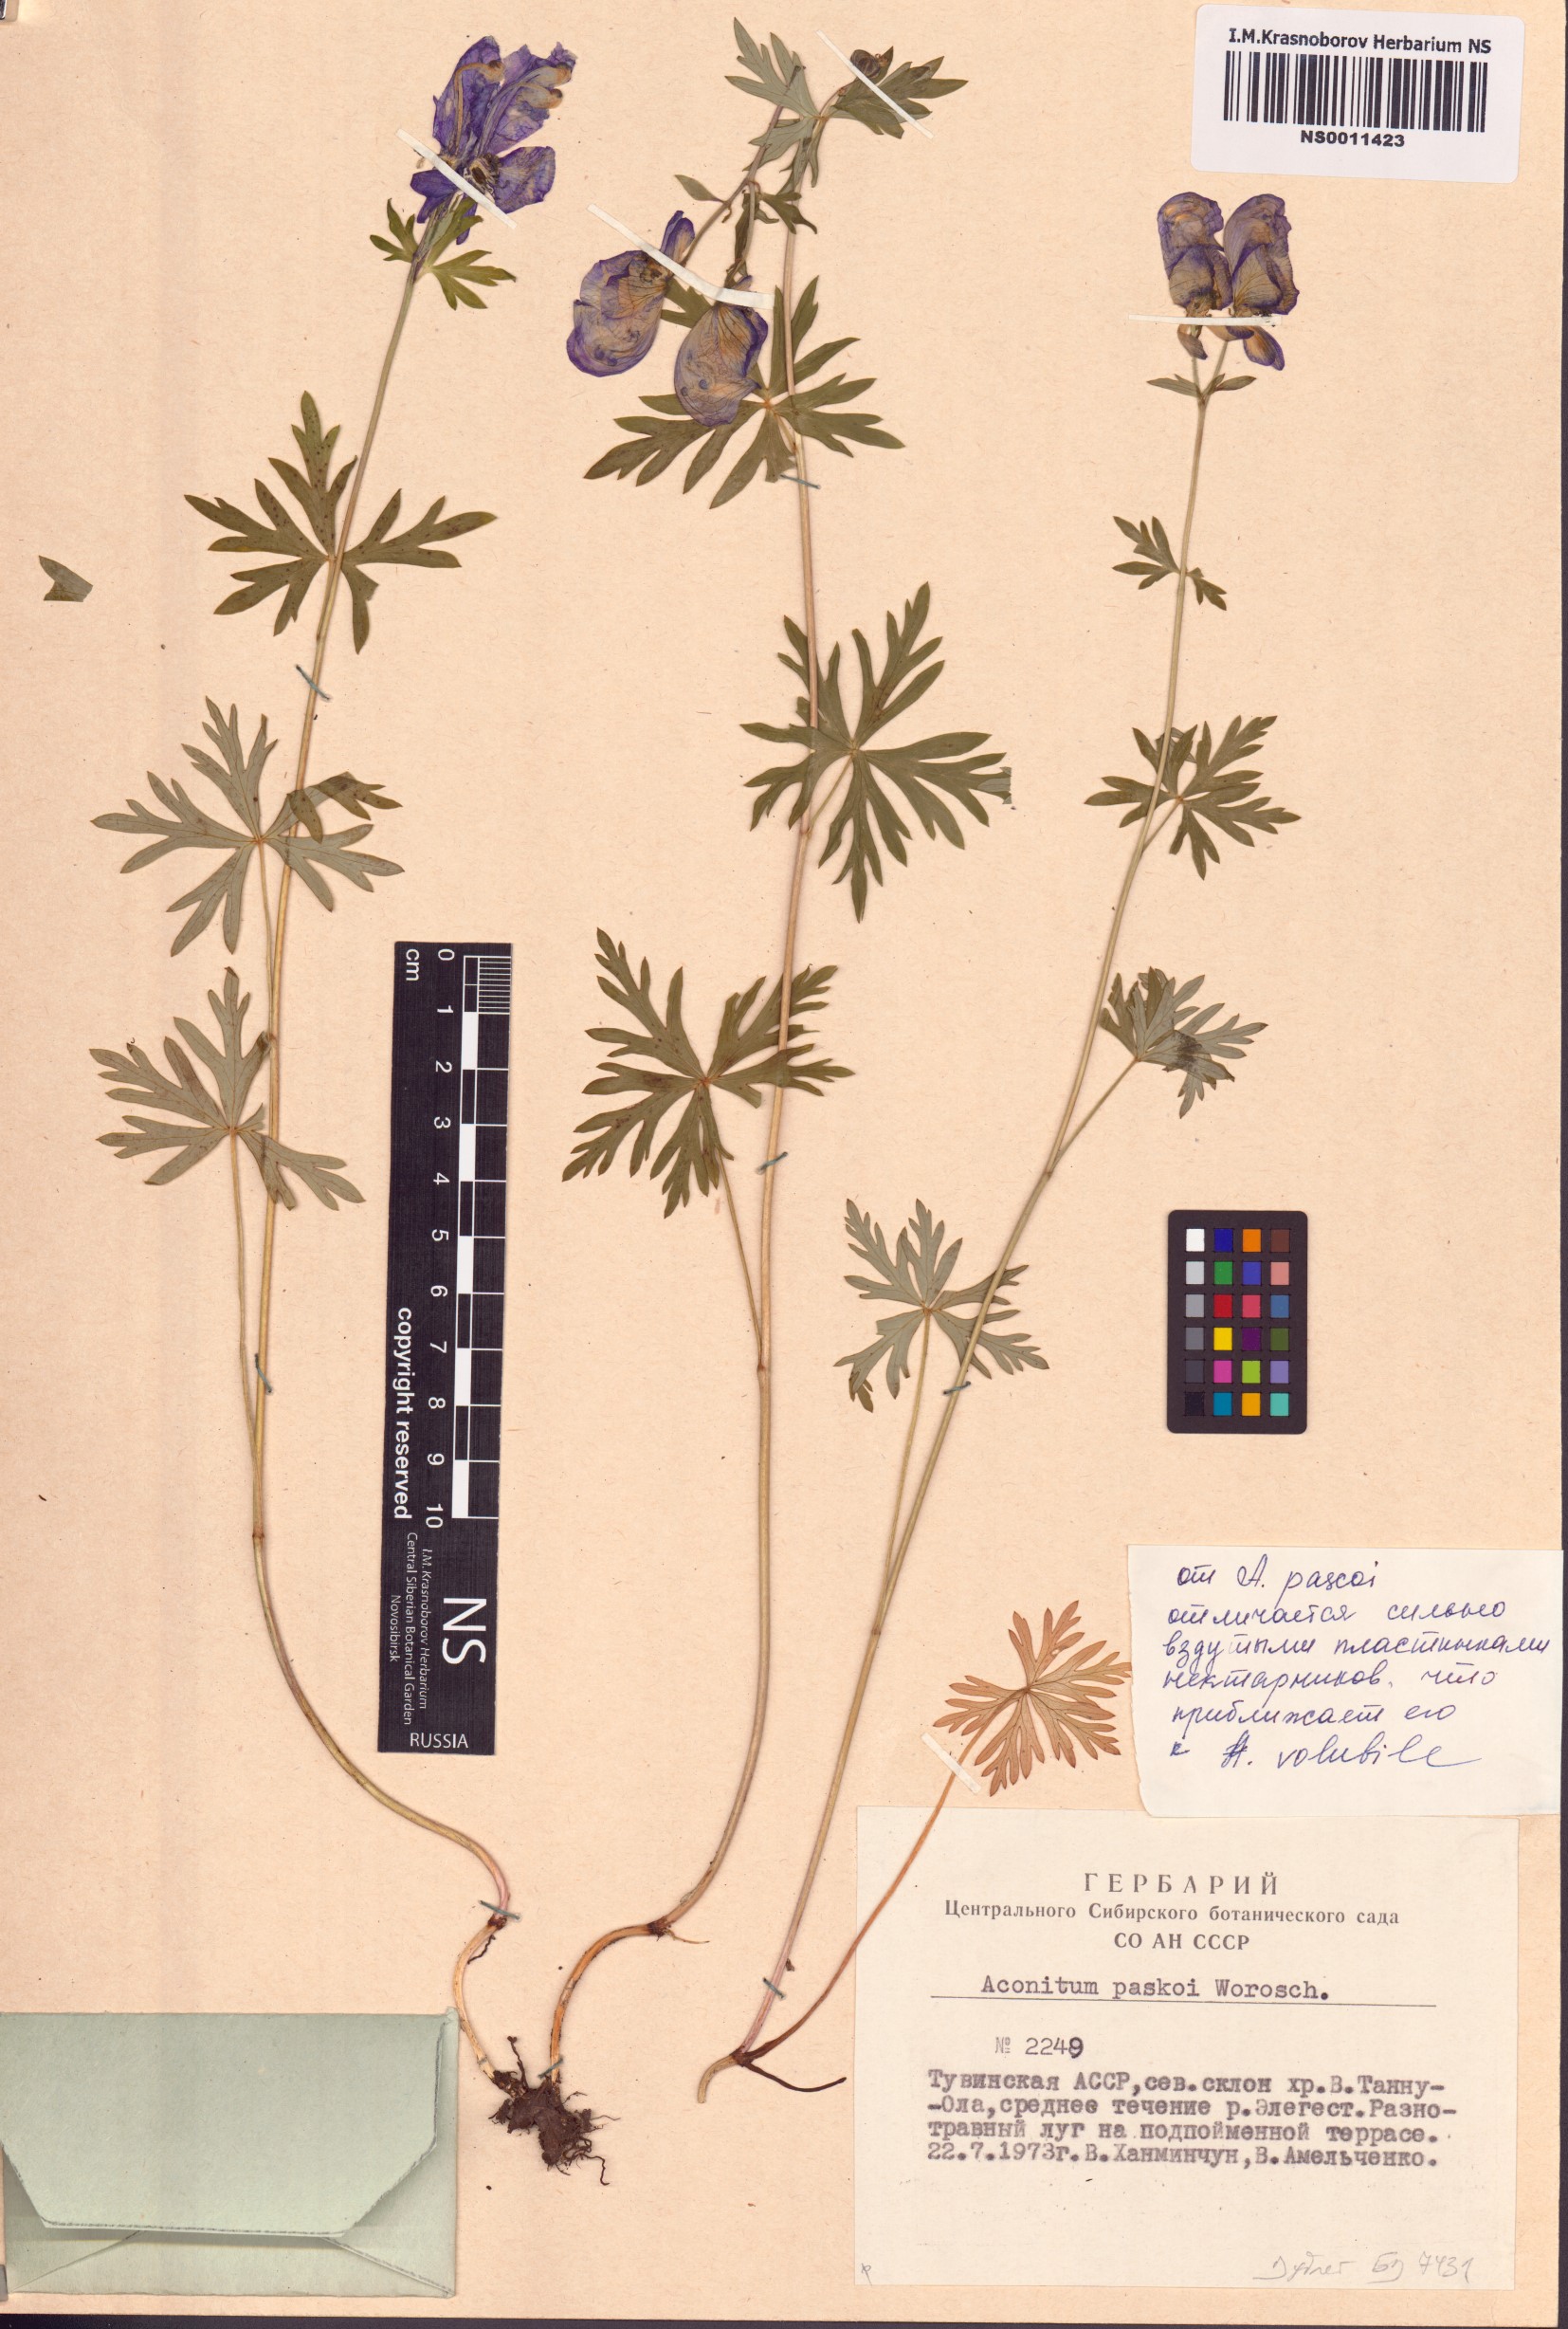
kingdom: Plantae
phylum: Tracheophyta
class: Magnoliopsida
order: Ranunculales
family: Ranunculaceae
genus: Aconitum
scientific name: Aconitum pascoi
